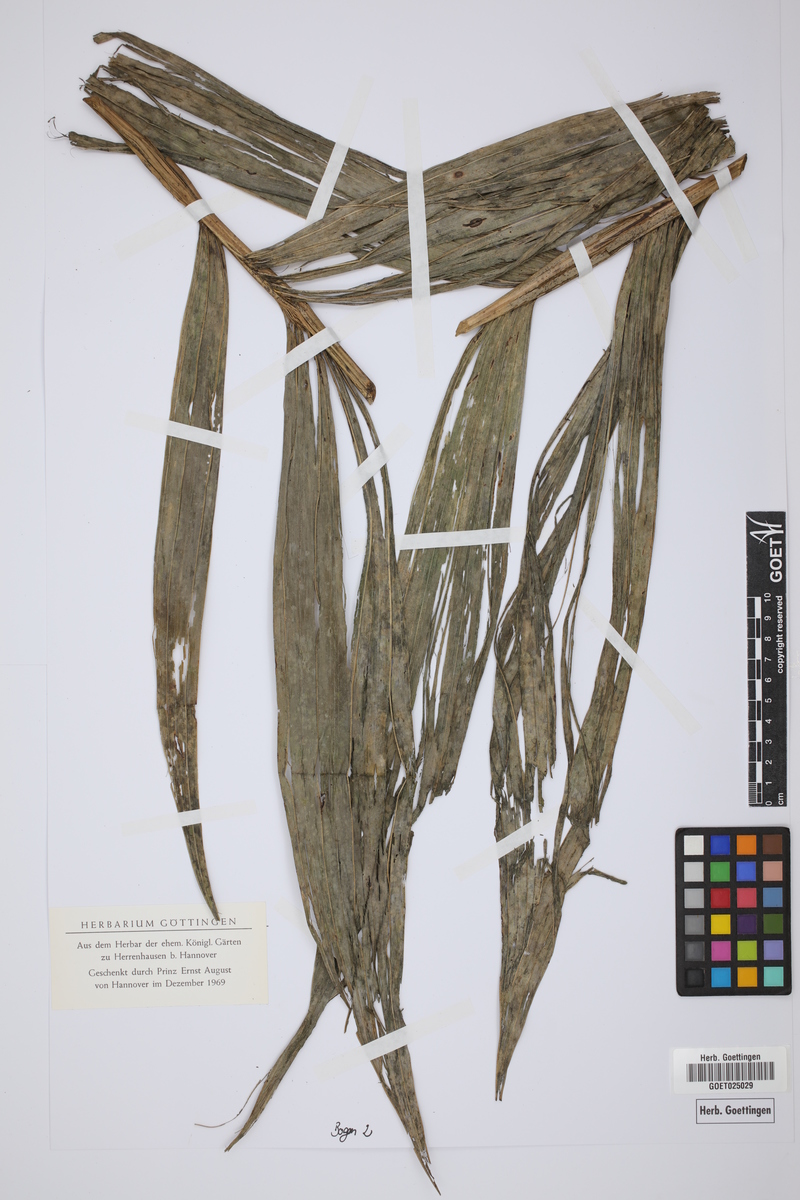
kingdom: Plantae
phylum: Tracheophyta
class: Liliopsida
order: Arecales
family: Arecaceae
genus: Areca
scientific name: Areca
